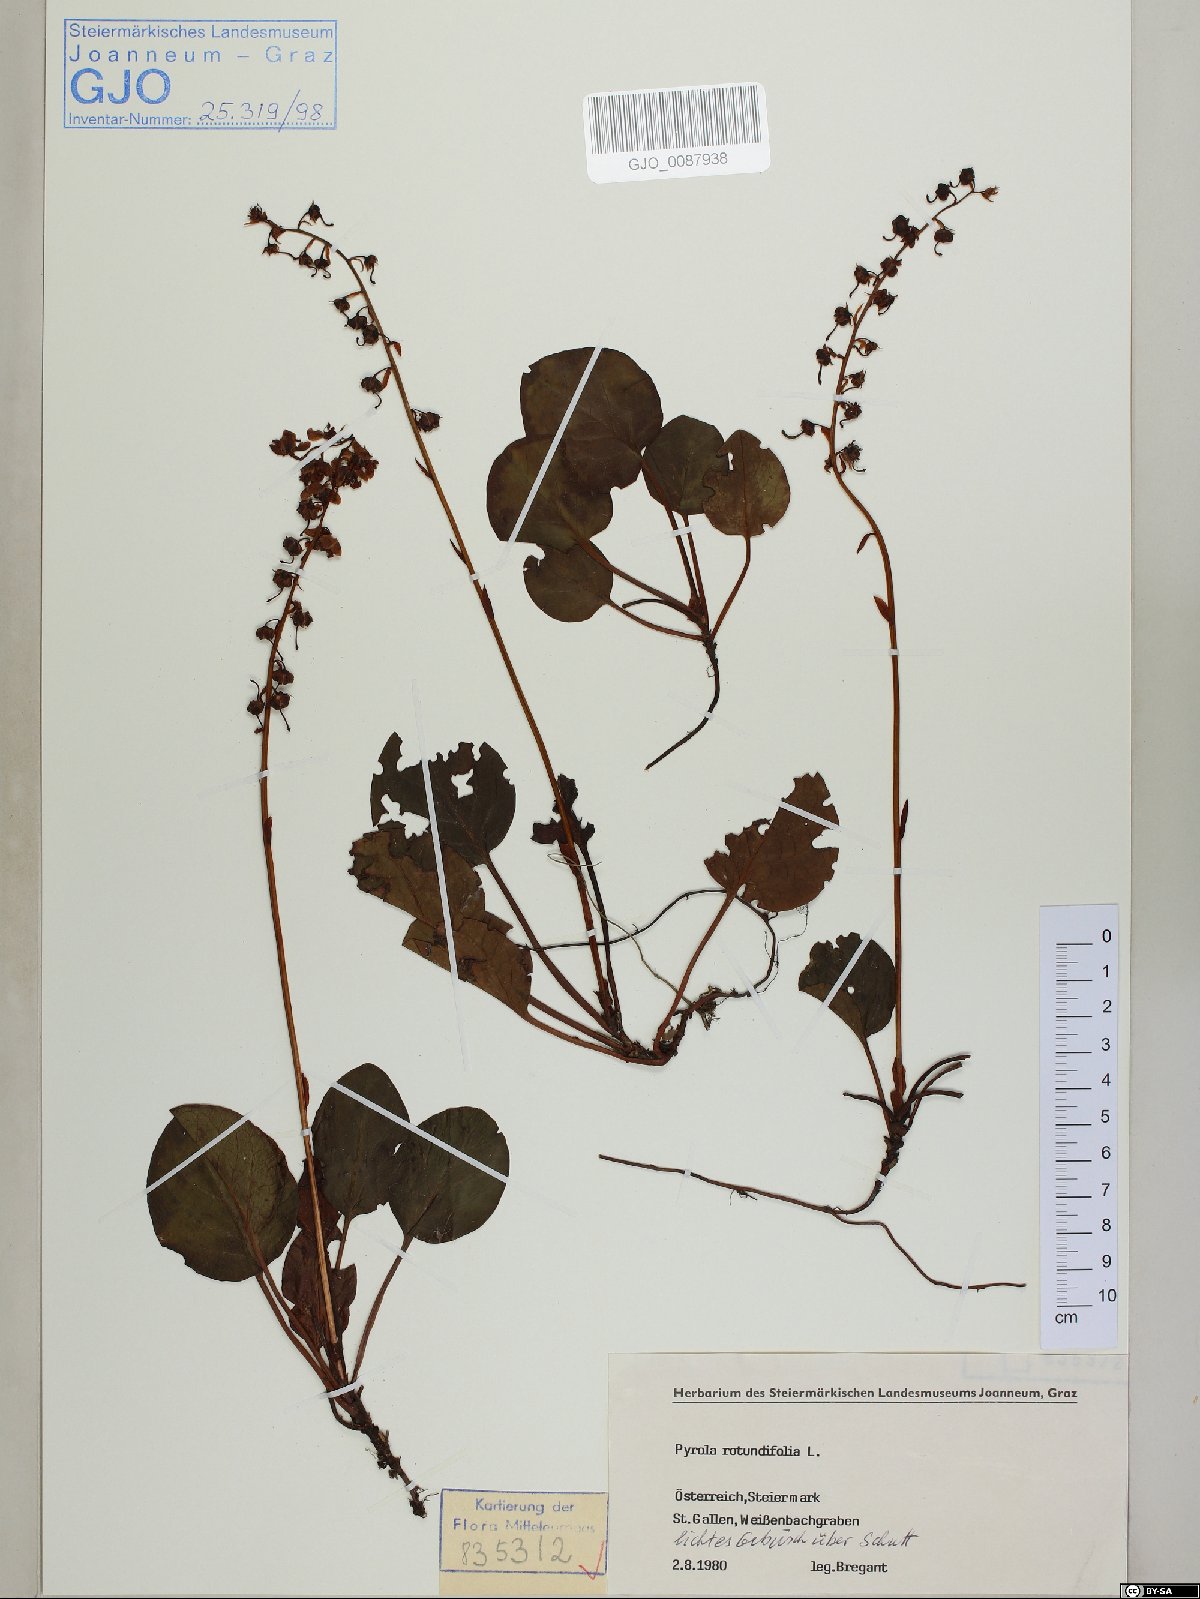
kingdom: Plantae
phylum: Tracheophyta
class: Magnoliopsida
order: Ericales
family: Ericaceae
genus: Pyrola
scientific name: Pyrola rotundifolia
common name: Round-leaved wintergreen
